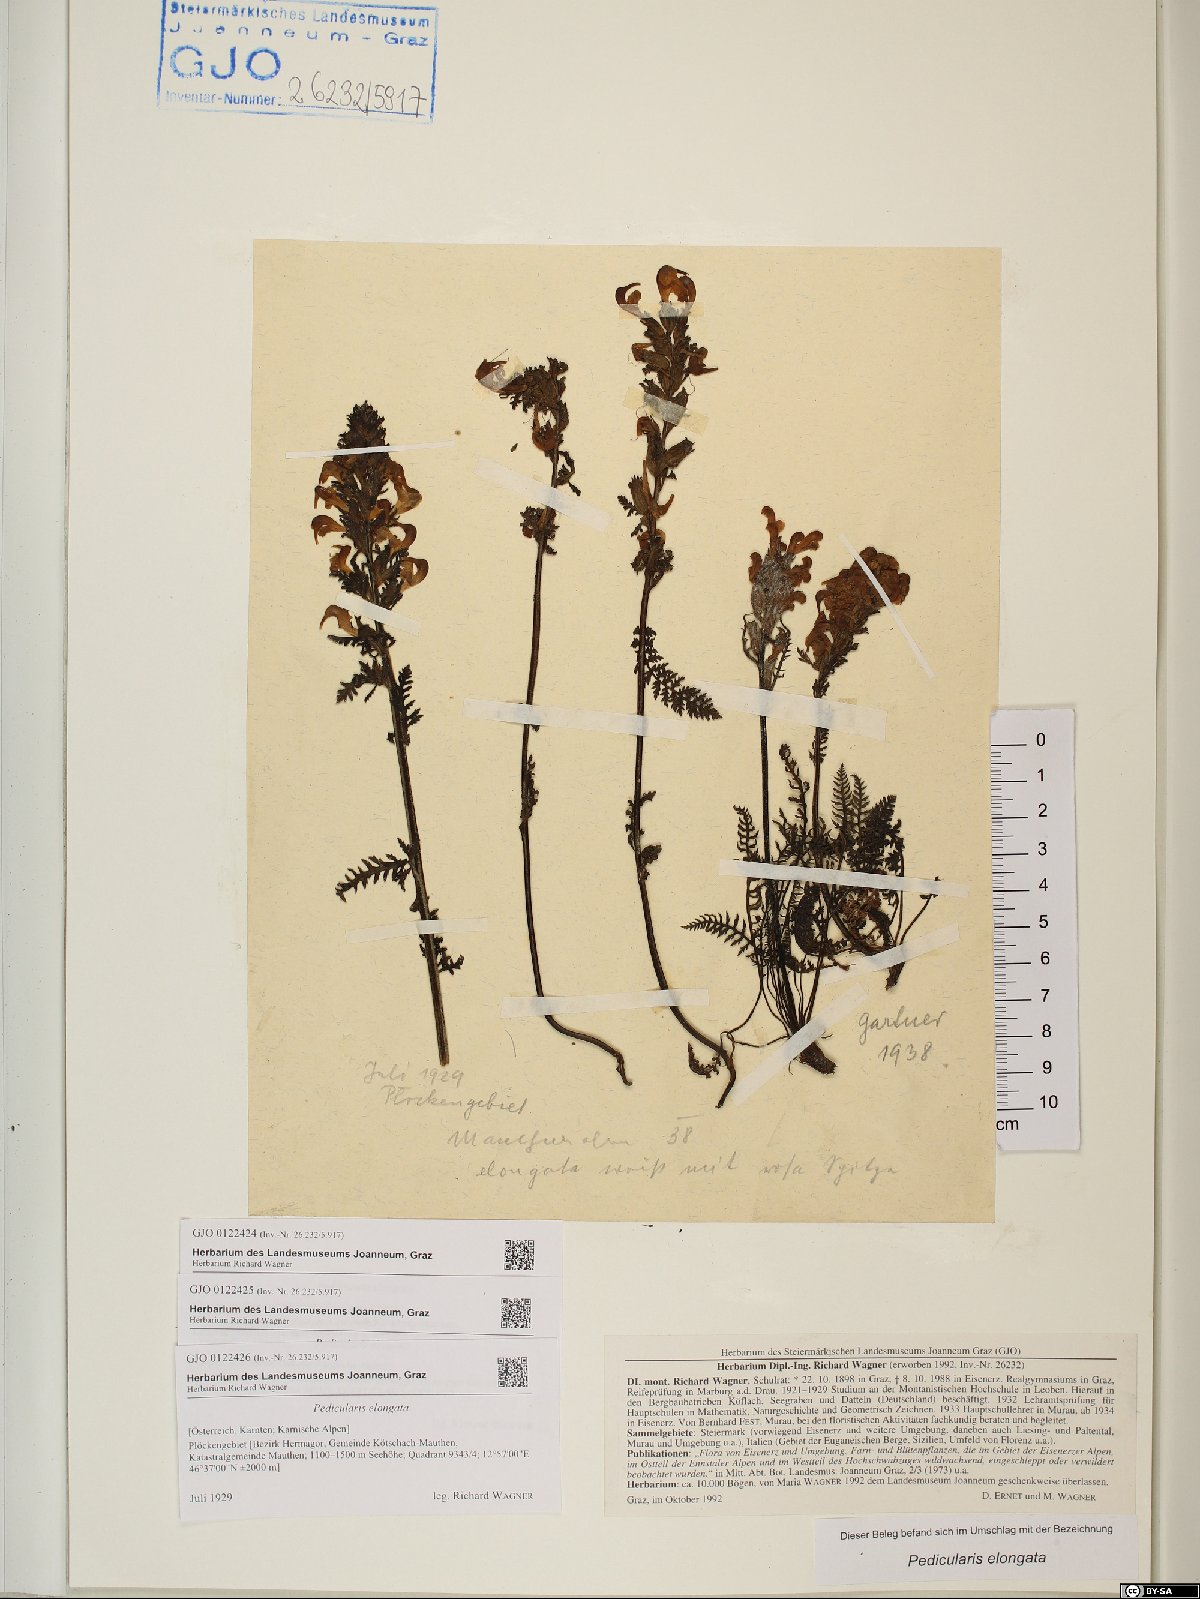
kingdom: Plantae
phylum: Tracheophyta
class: Magnoliopsida
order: Lamiales
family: Orobanchaceae
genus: Pedicularis
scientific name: Pedicularis elongata
